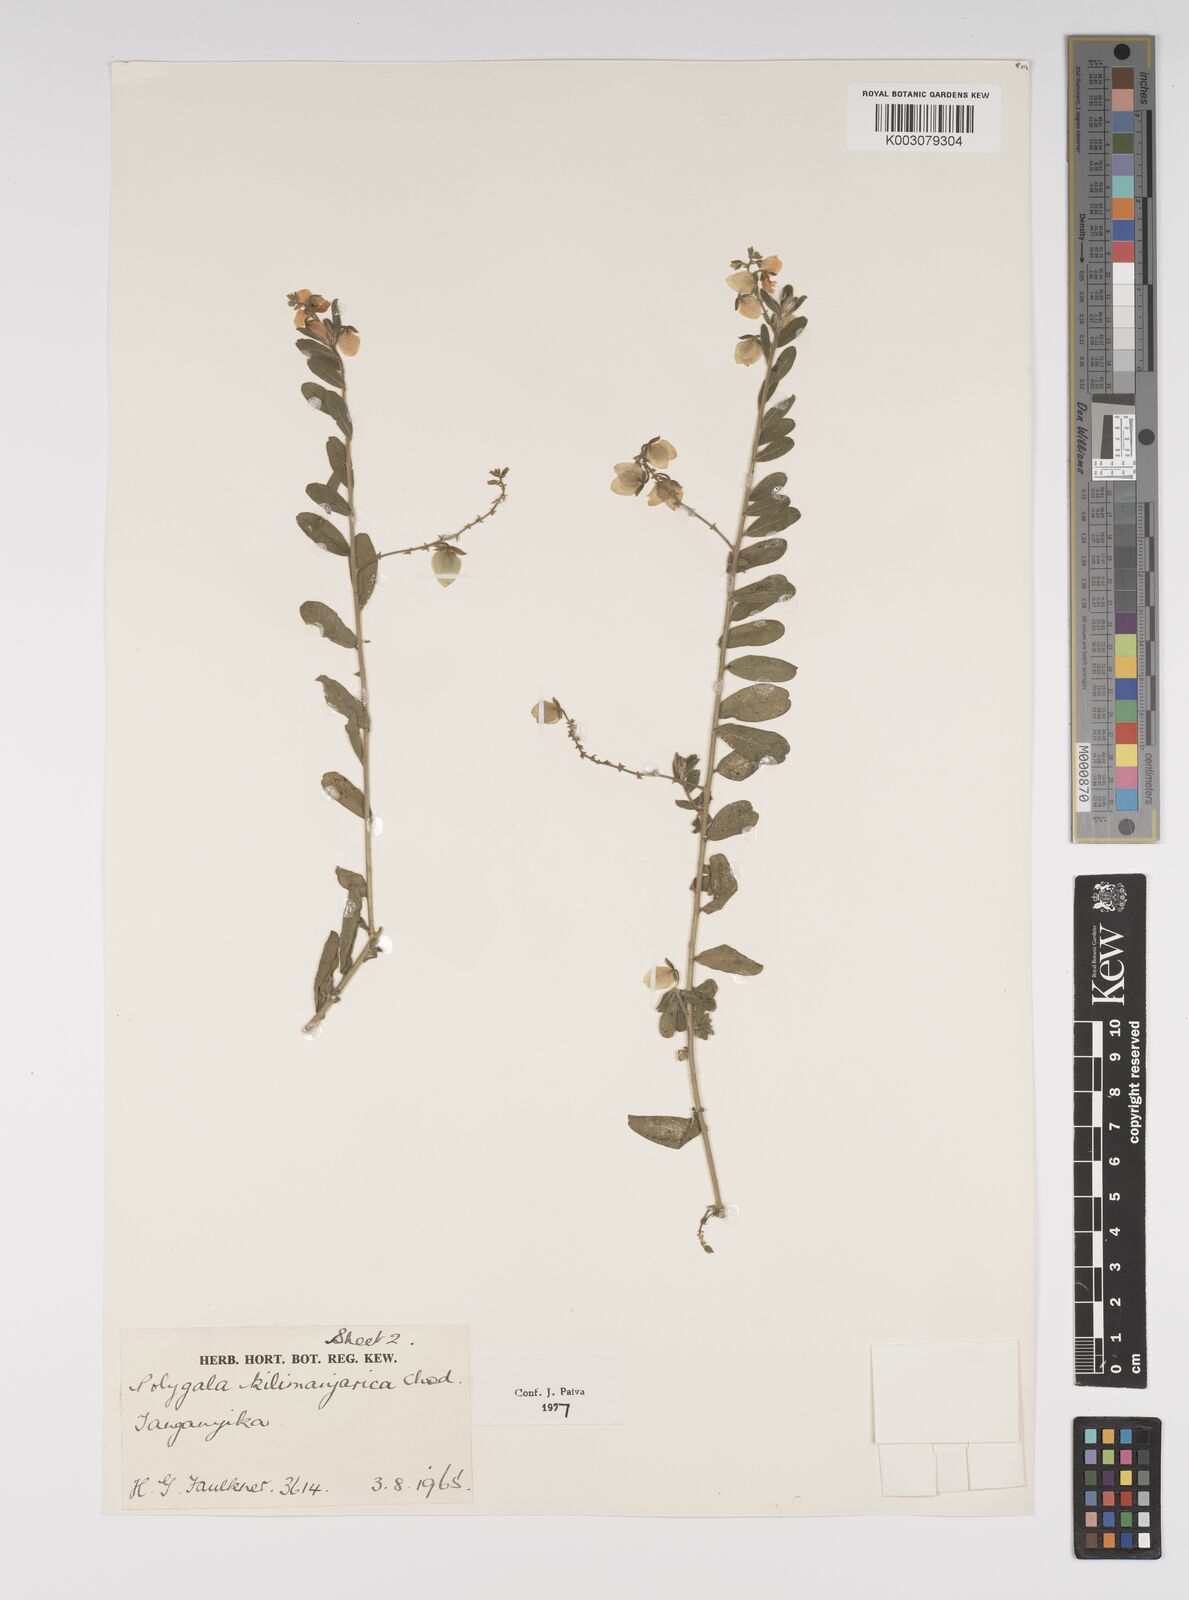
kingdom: Plantae
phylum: Tracheophyta
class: Magnoliopsida
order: Fabales
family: Polygalaceae
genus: Polygala
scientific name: Polygala kilimandjarica
